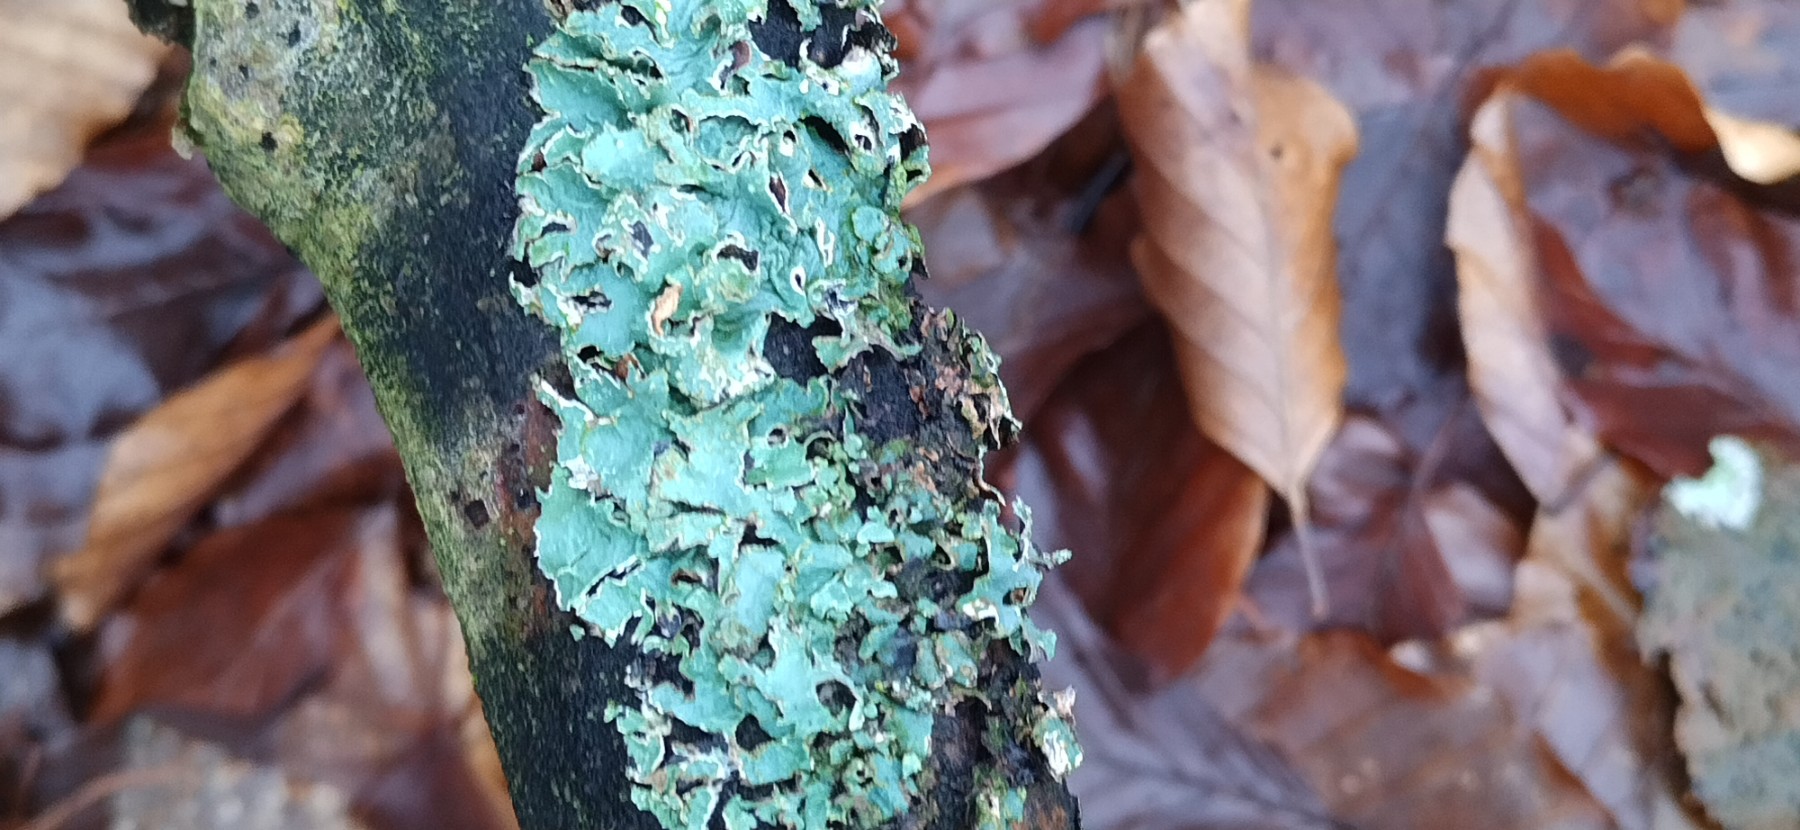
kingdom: Fungi
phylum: Ascomycota
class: Lecanoromycetes
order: Lecanorales
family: Parmeliaceae
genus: Parmelia
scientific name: Parmelia sulcata
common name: rynket skållav
